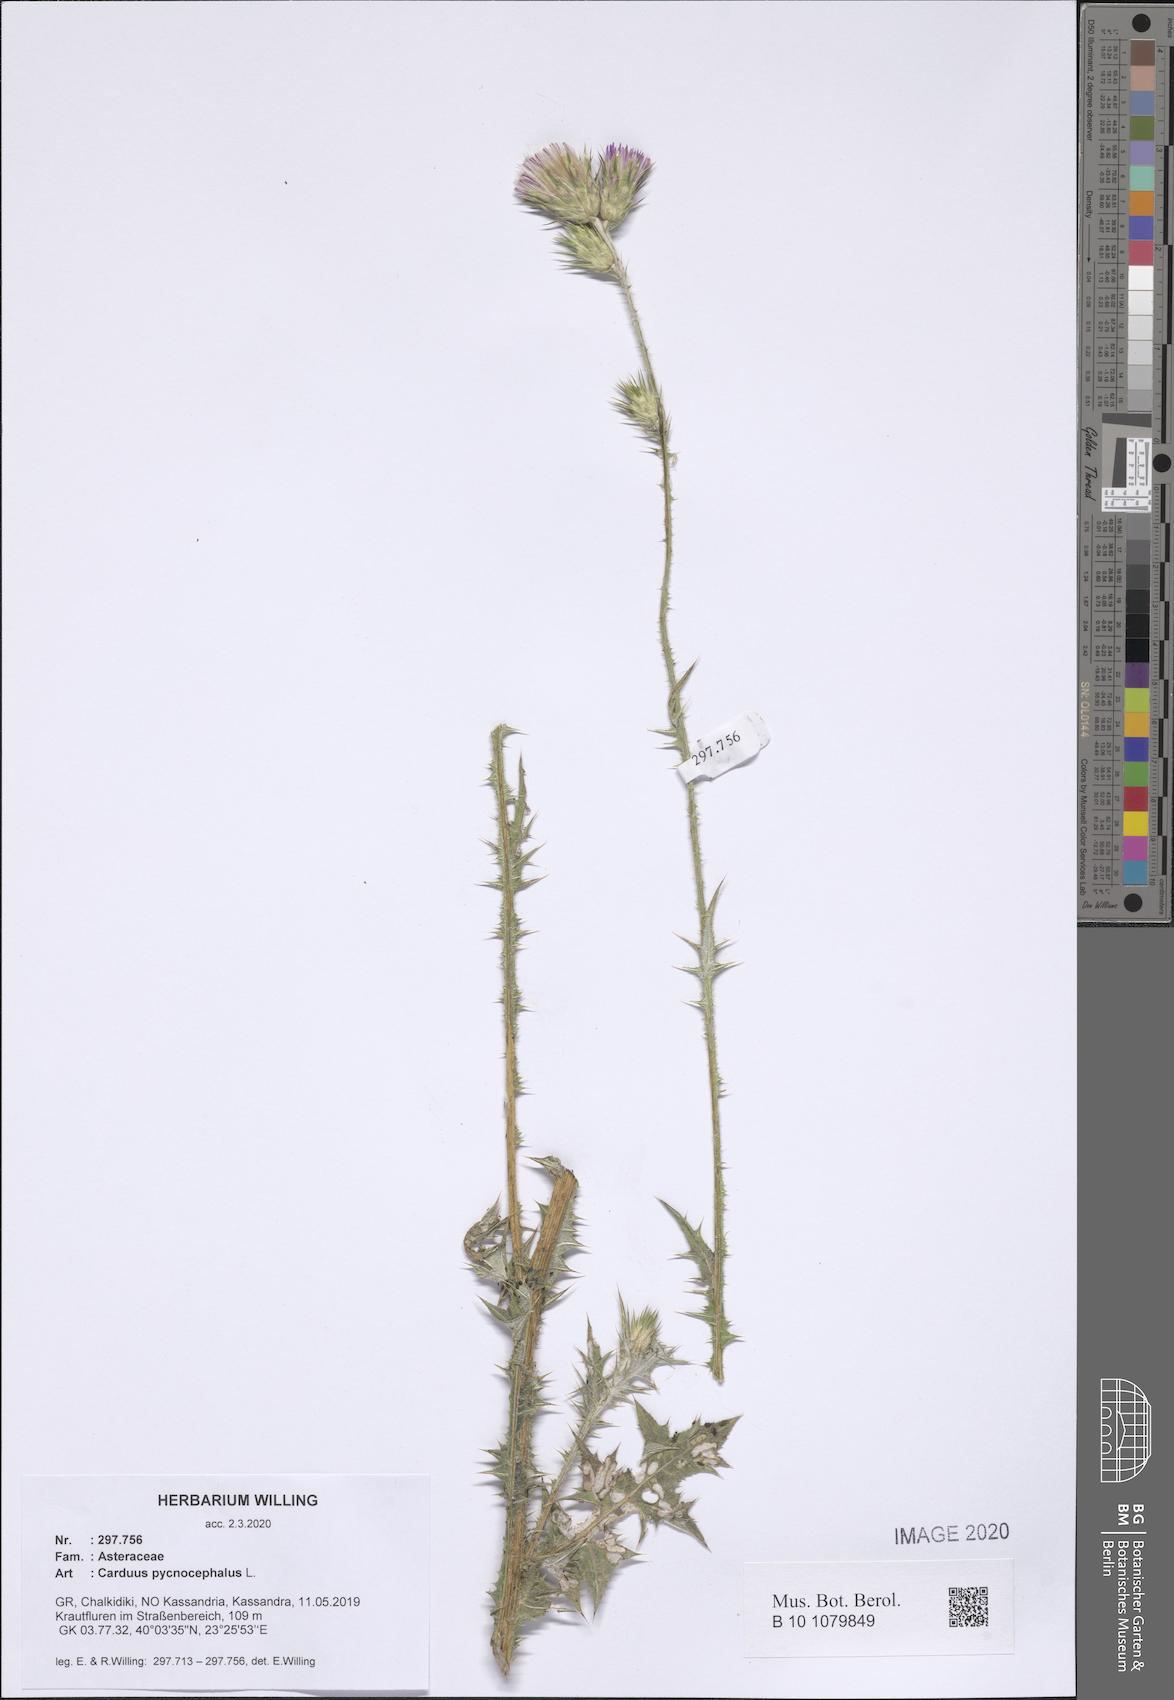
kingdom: Plantae
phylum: Tracheophyta
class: Magnoliopsida
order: Asterales
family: Asteraceae
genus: Carduus
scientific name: Carduus pycnocephalus
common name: Plymouth thistle
